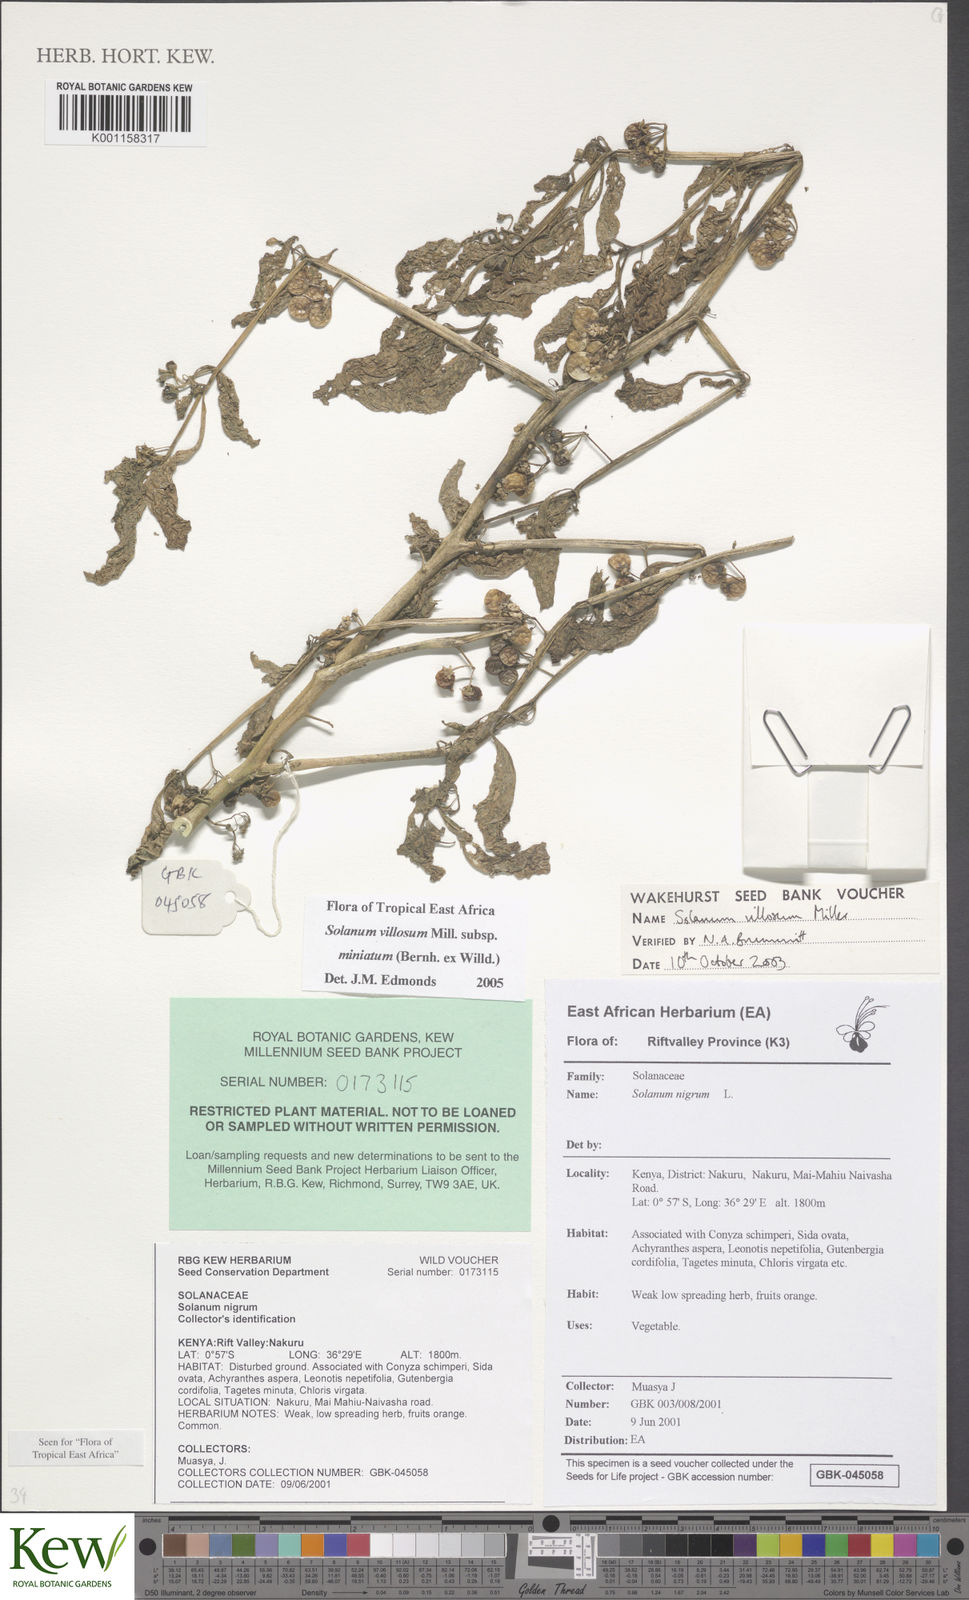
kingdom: Plantae
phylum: Tracheophyta
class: Magnoliopsida
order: Solanales
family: Solanaceae
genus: Solanum
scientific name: Solanum villosum
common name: Red nightshade
